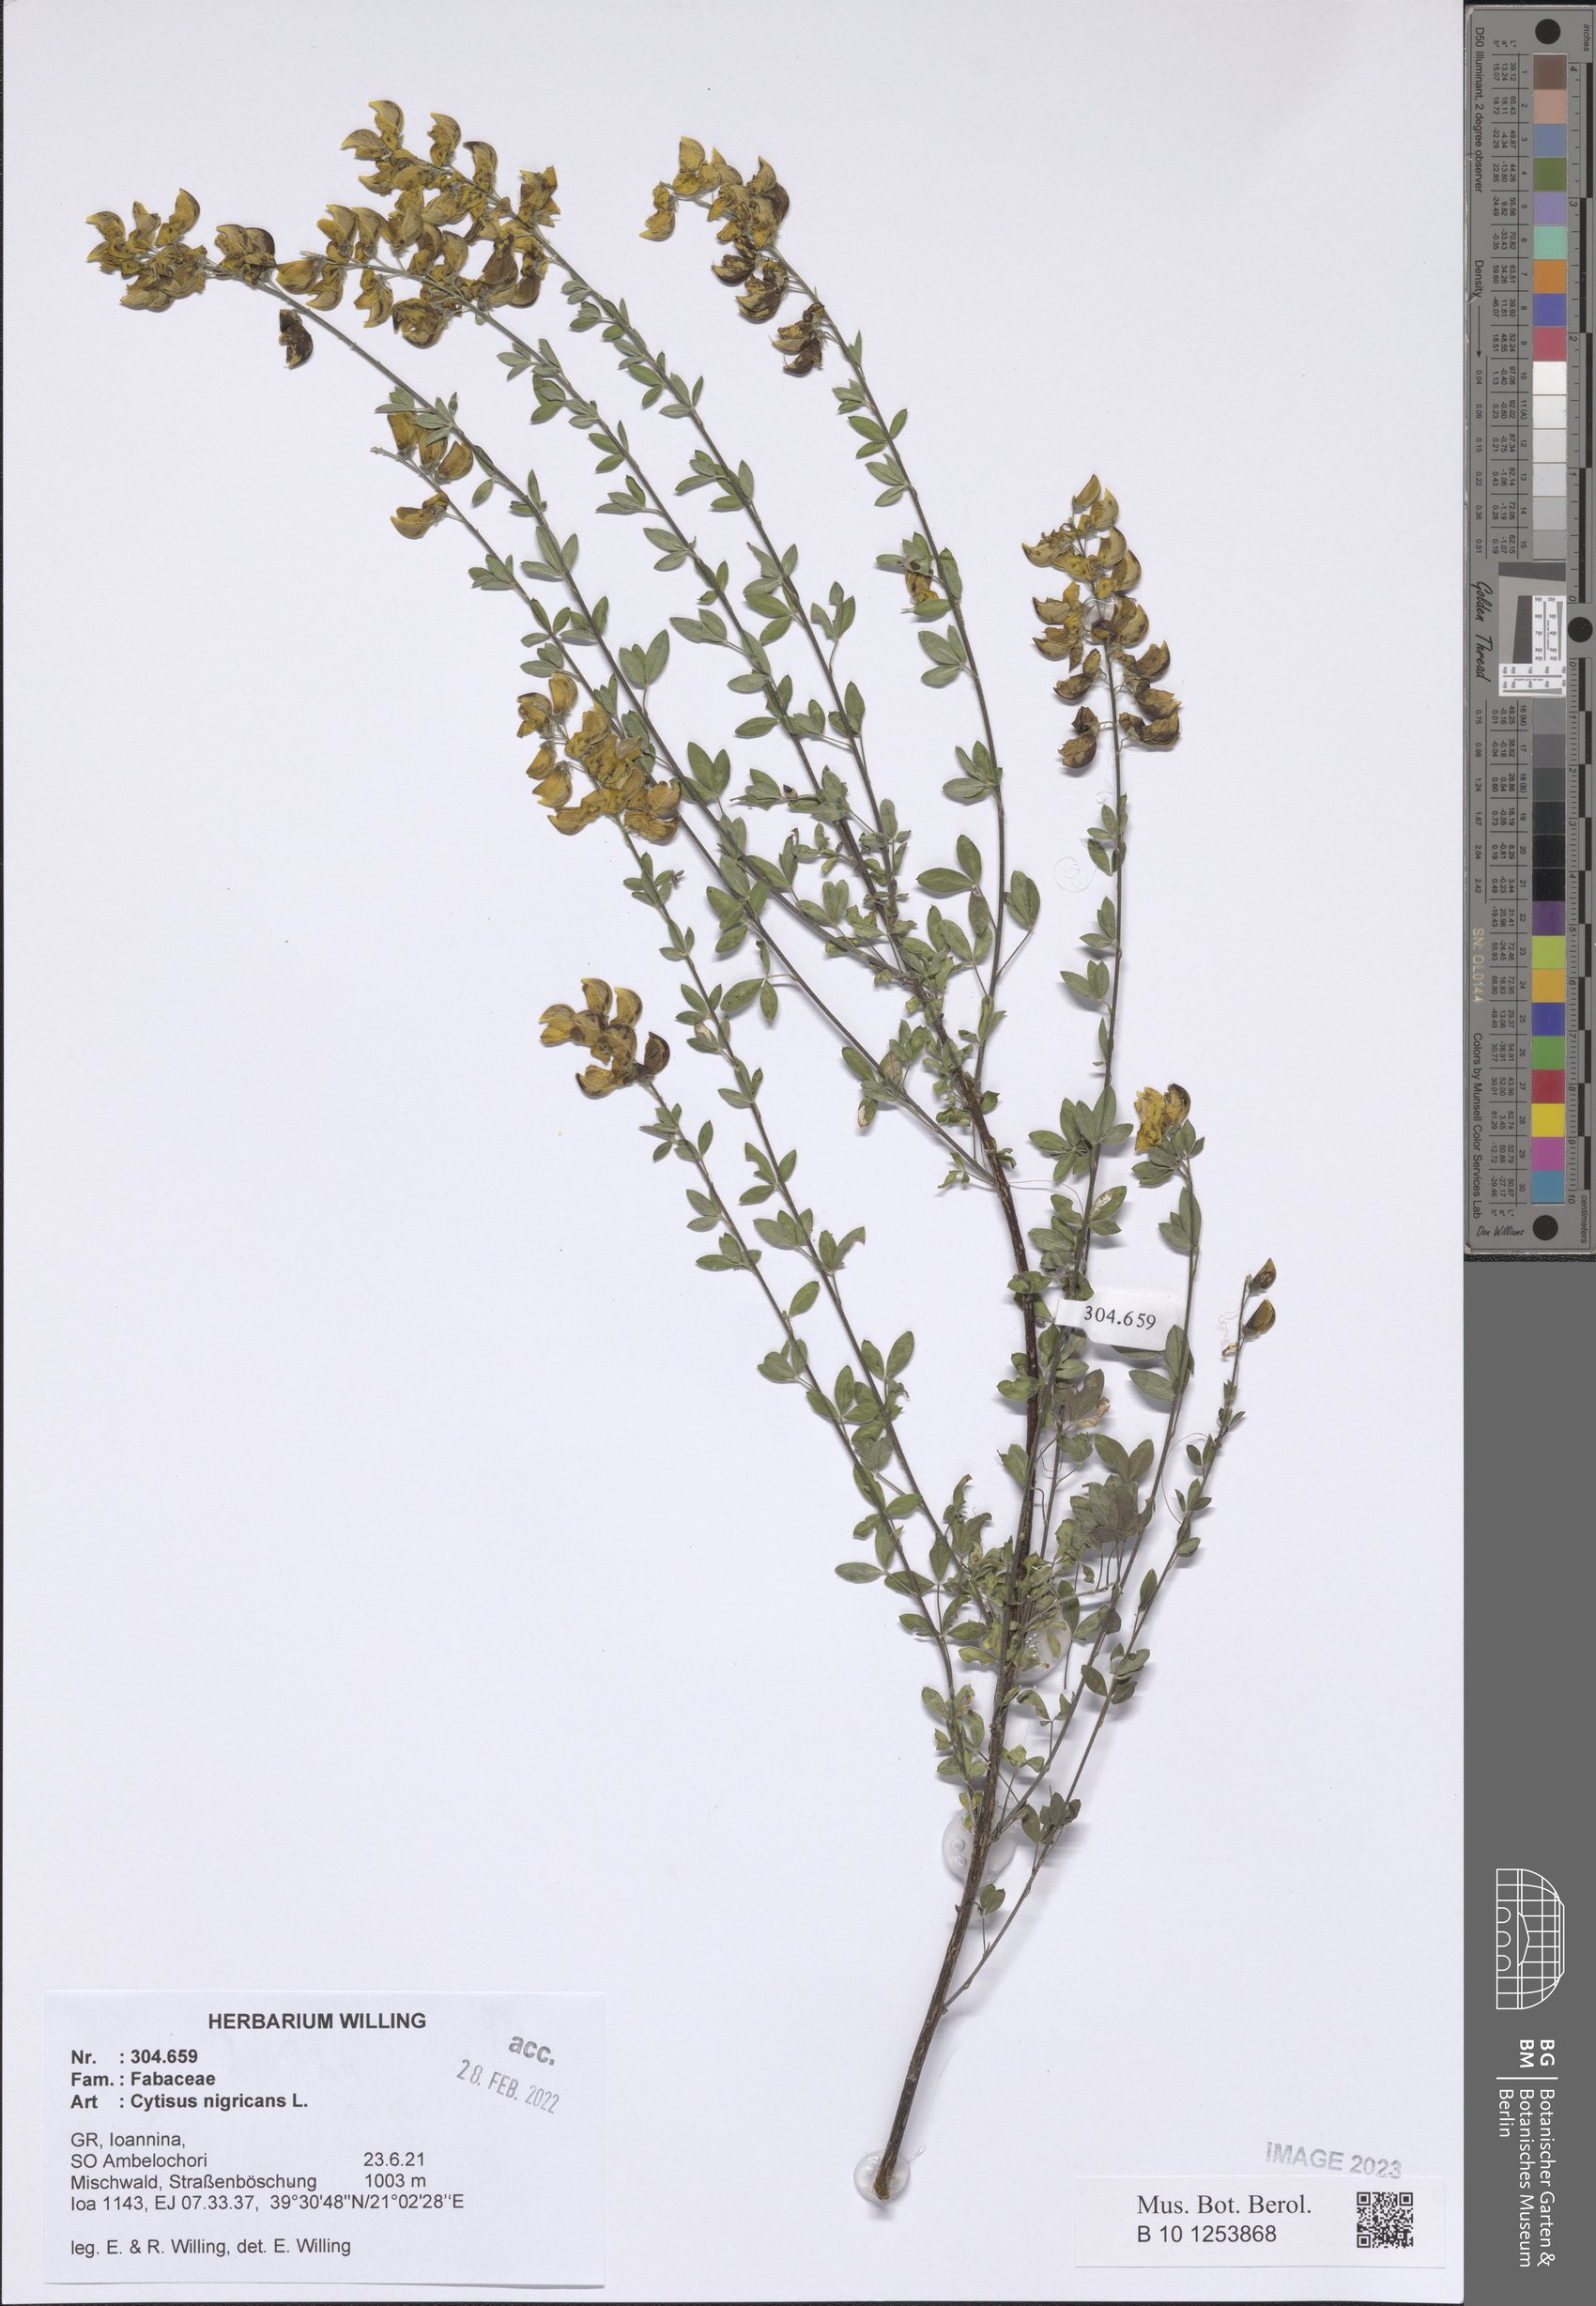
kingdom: Plantae
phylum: Tracheophyta
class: Magnoliopsida
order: Dipsacales
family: Caprifoliaceae
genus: Cephalaria
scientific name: Cephalaria flava
